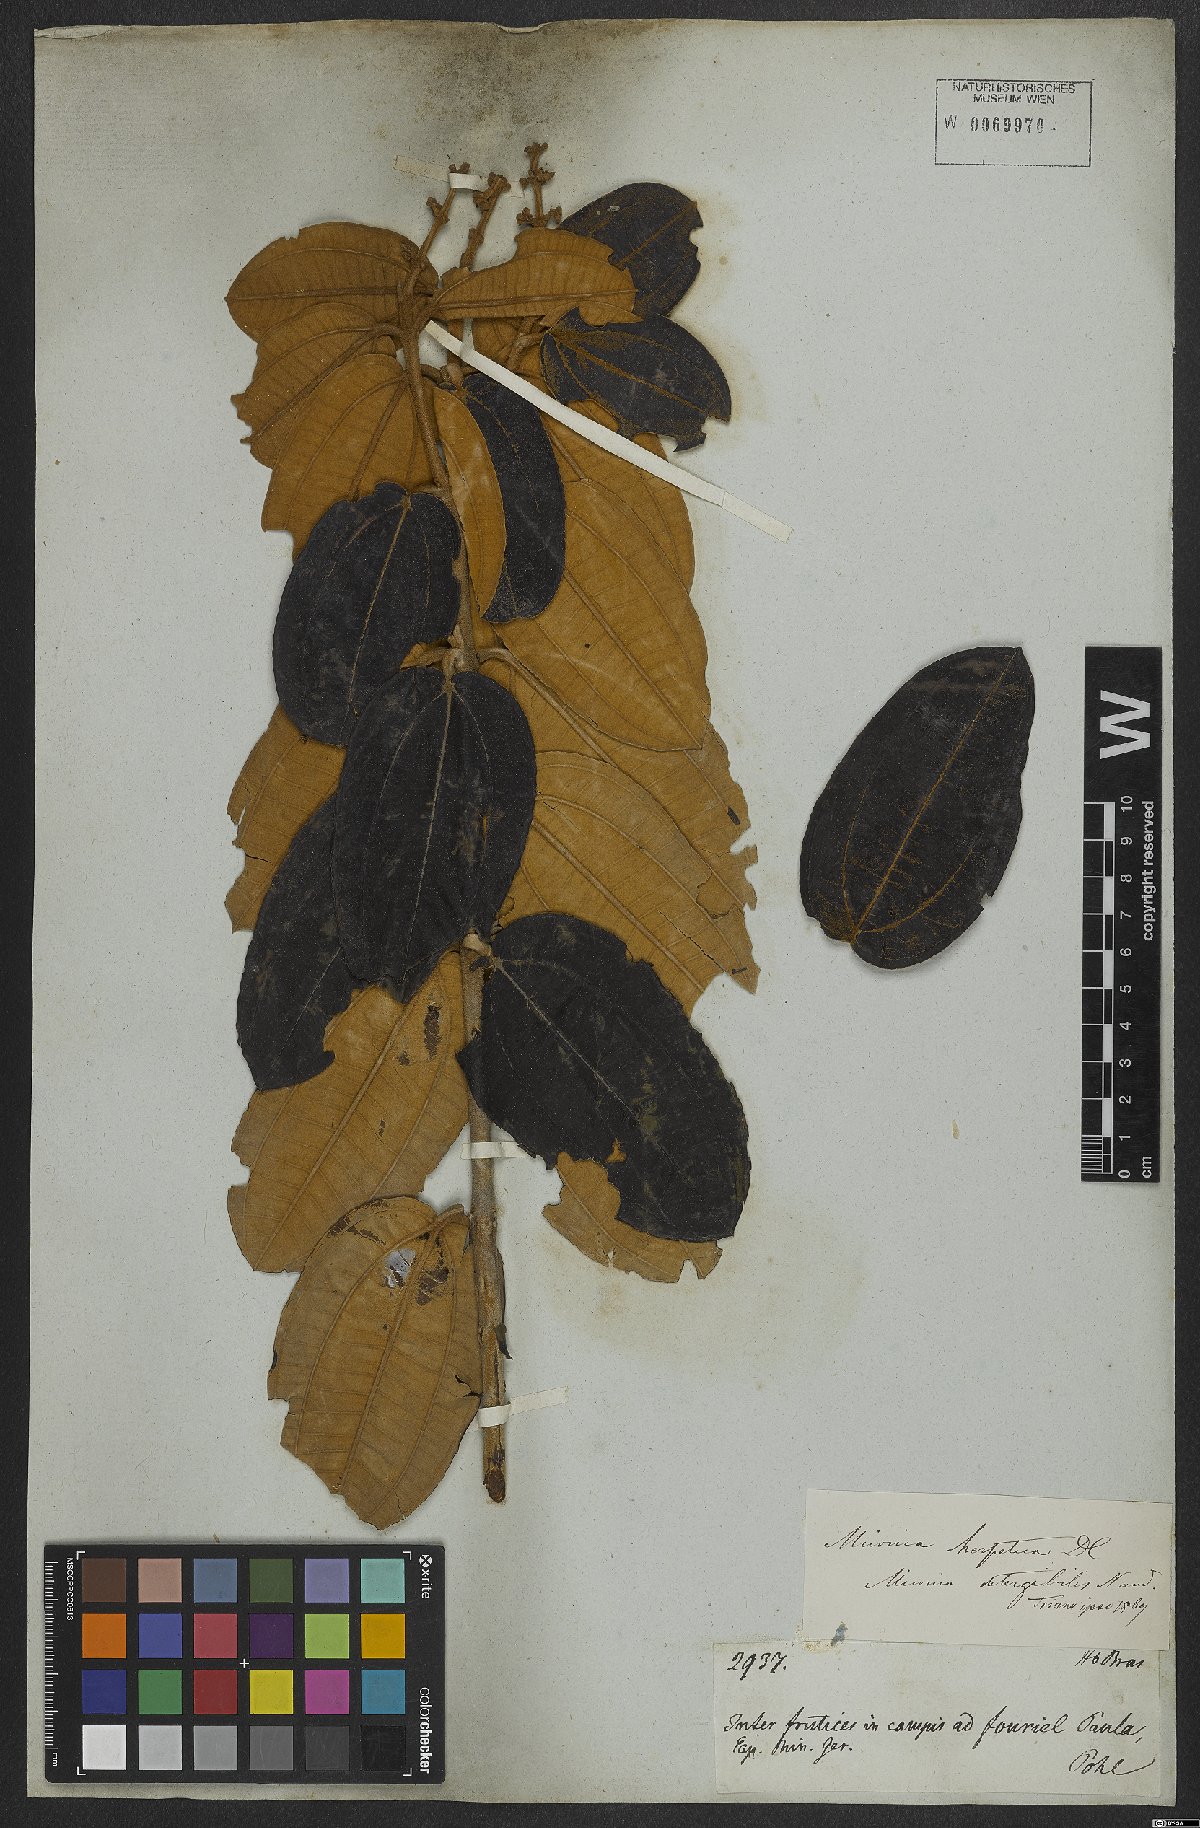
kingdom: Plantae
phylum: Tracheophyta
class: Magnoliopsida
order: Myrtales
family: Melastomataceae
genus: Miconia
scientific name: Miconia herpetica
